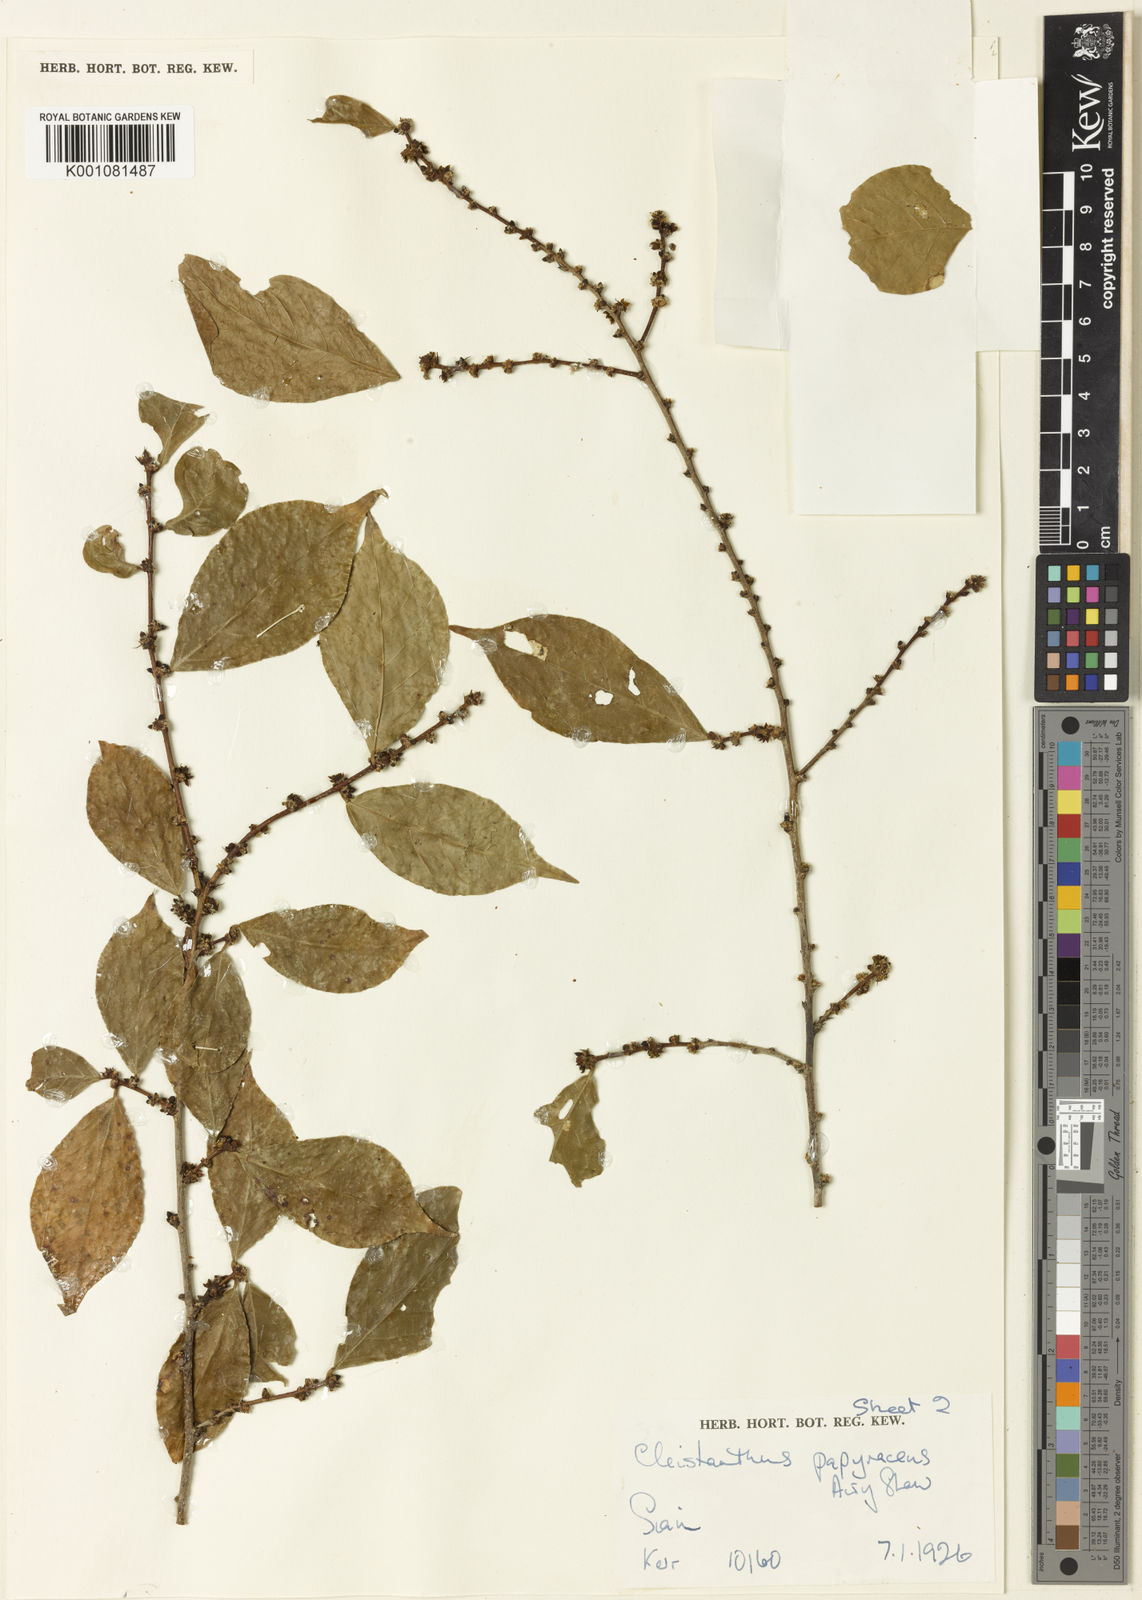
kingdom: Plantae
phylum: Tracheophyta
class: Magnoliopsida
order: Malpighiales
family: Phyllanthaceae
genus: Cleistanthus
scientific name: Cleistanthus papyraceus
